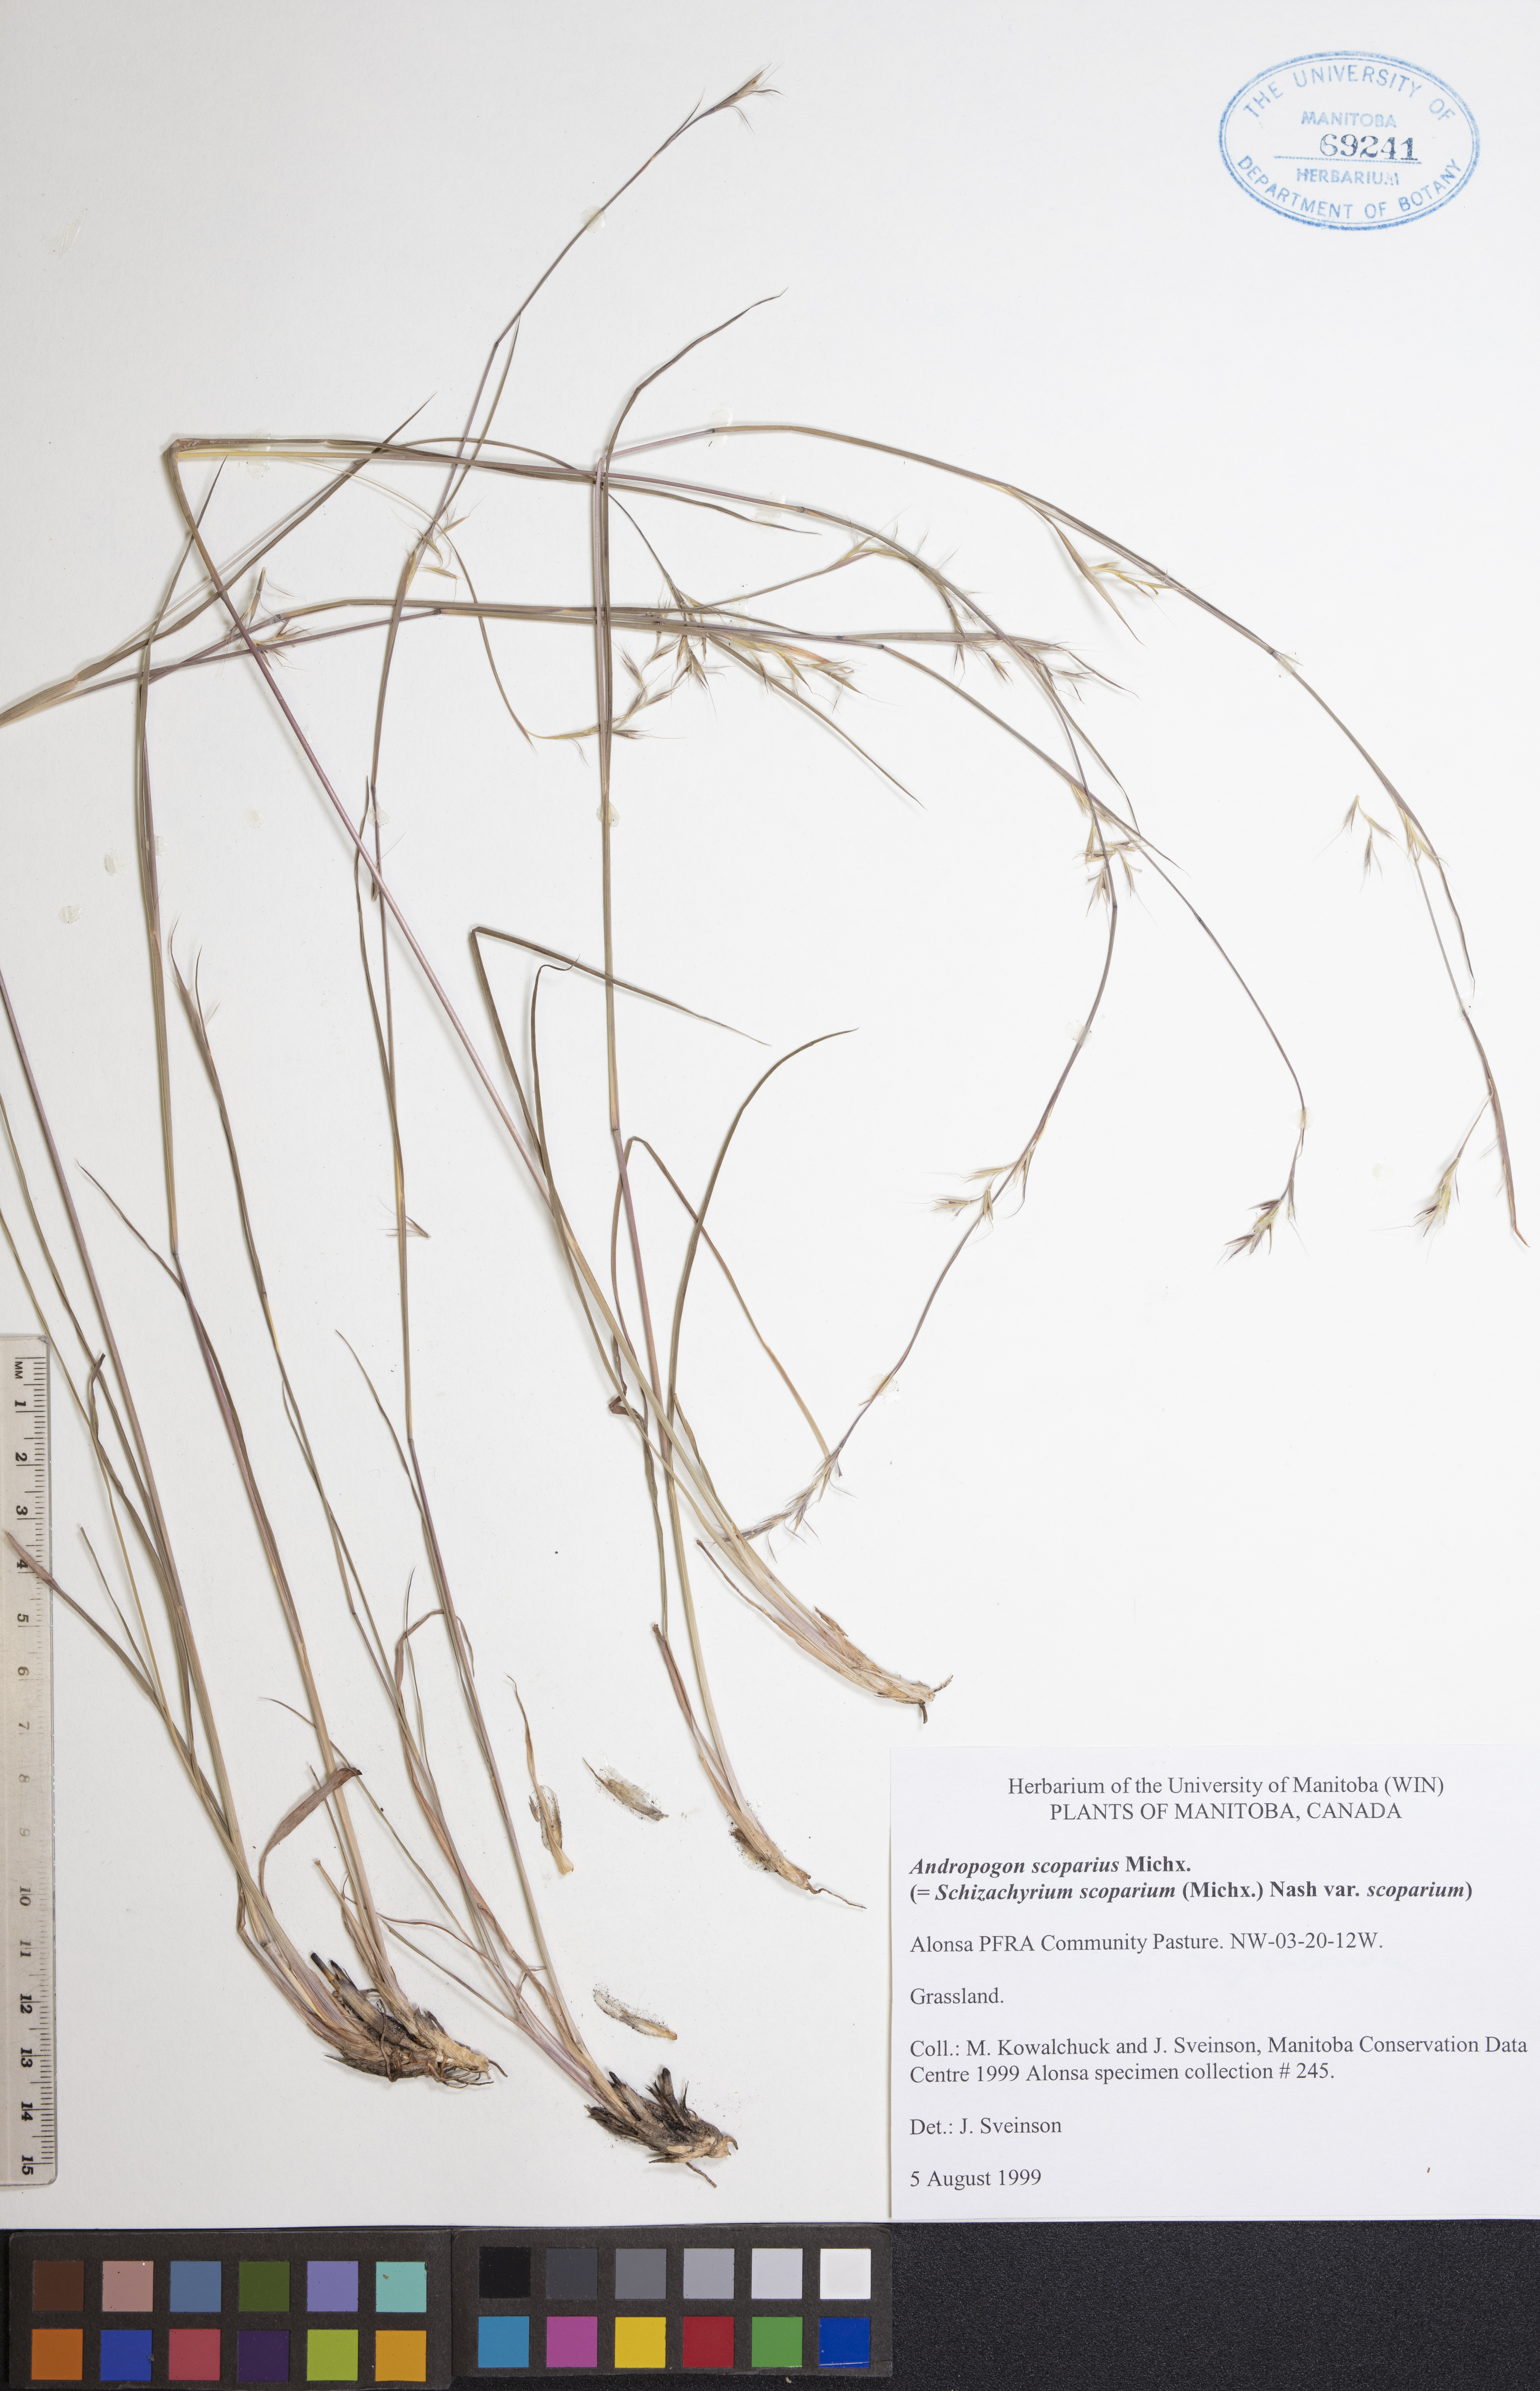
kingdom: Plantae
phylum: Tracheophyta
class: Liliopsida
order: Poales
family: Poaceae
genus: Schizachyrium
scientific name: Schizachyrium scoparium
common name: Little bluestem
